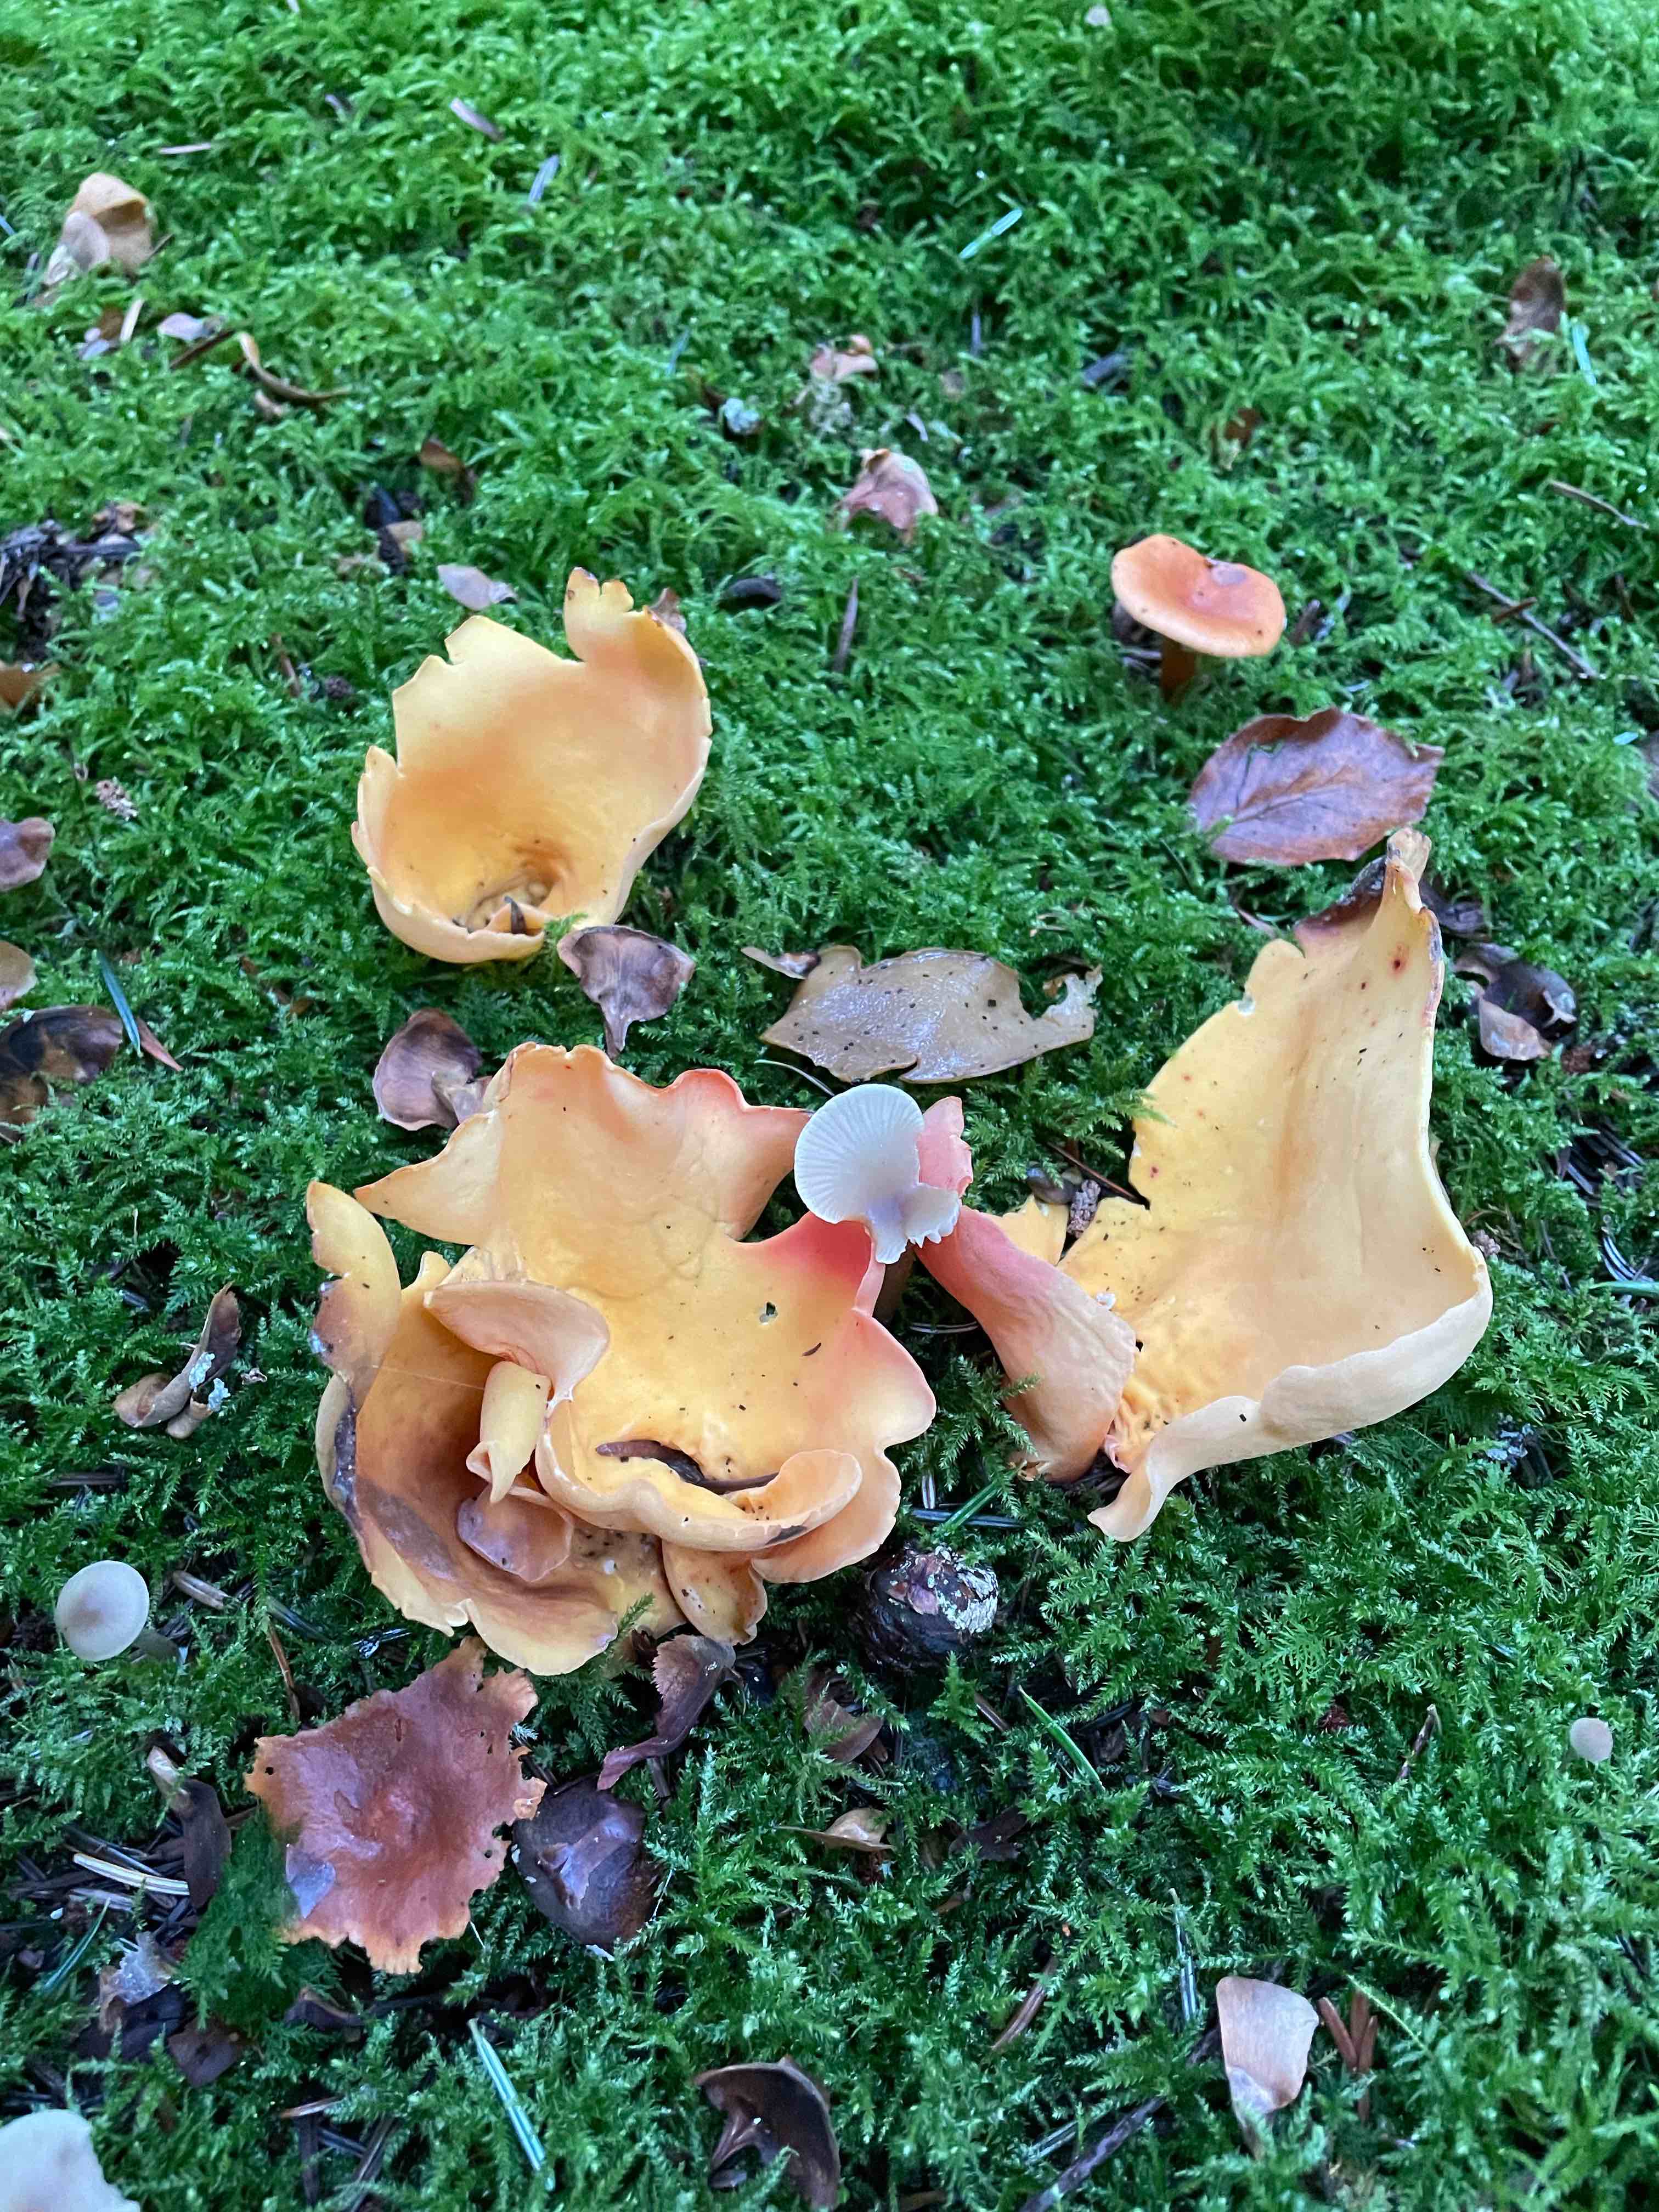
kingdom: Fungi
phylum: Ascomycota
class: Pezizomycetes
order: Pezizales
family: Otideaceae
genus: Otidea
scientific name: Otidea onotica
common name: æsel-ørebæger
